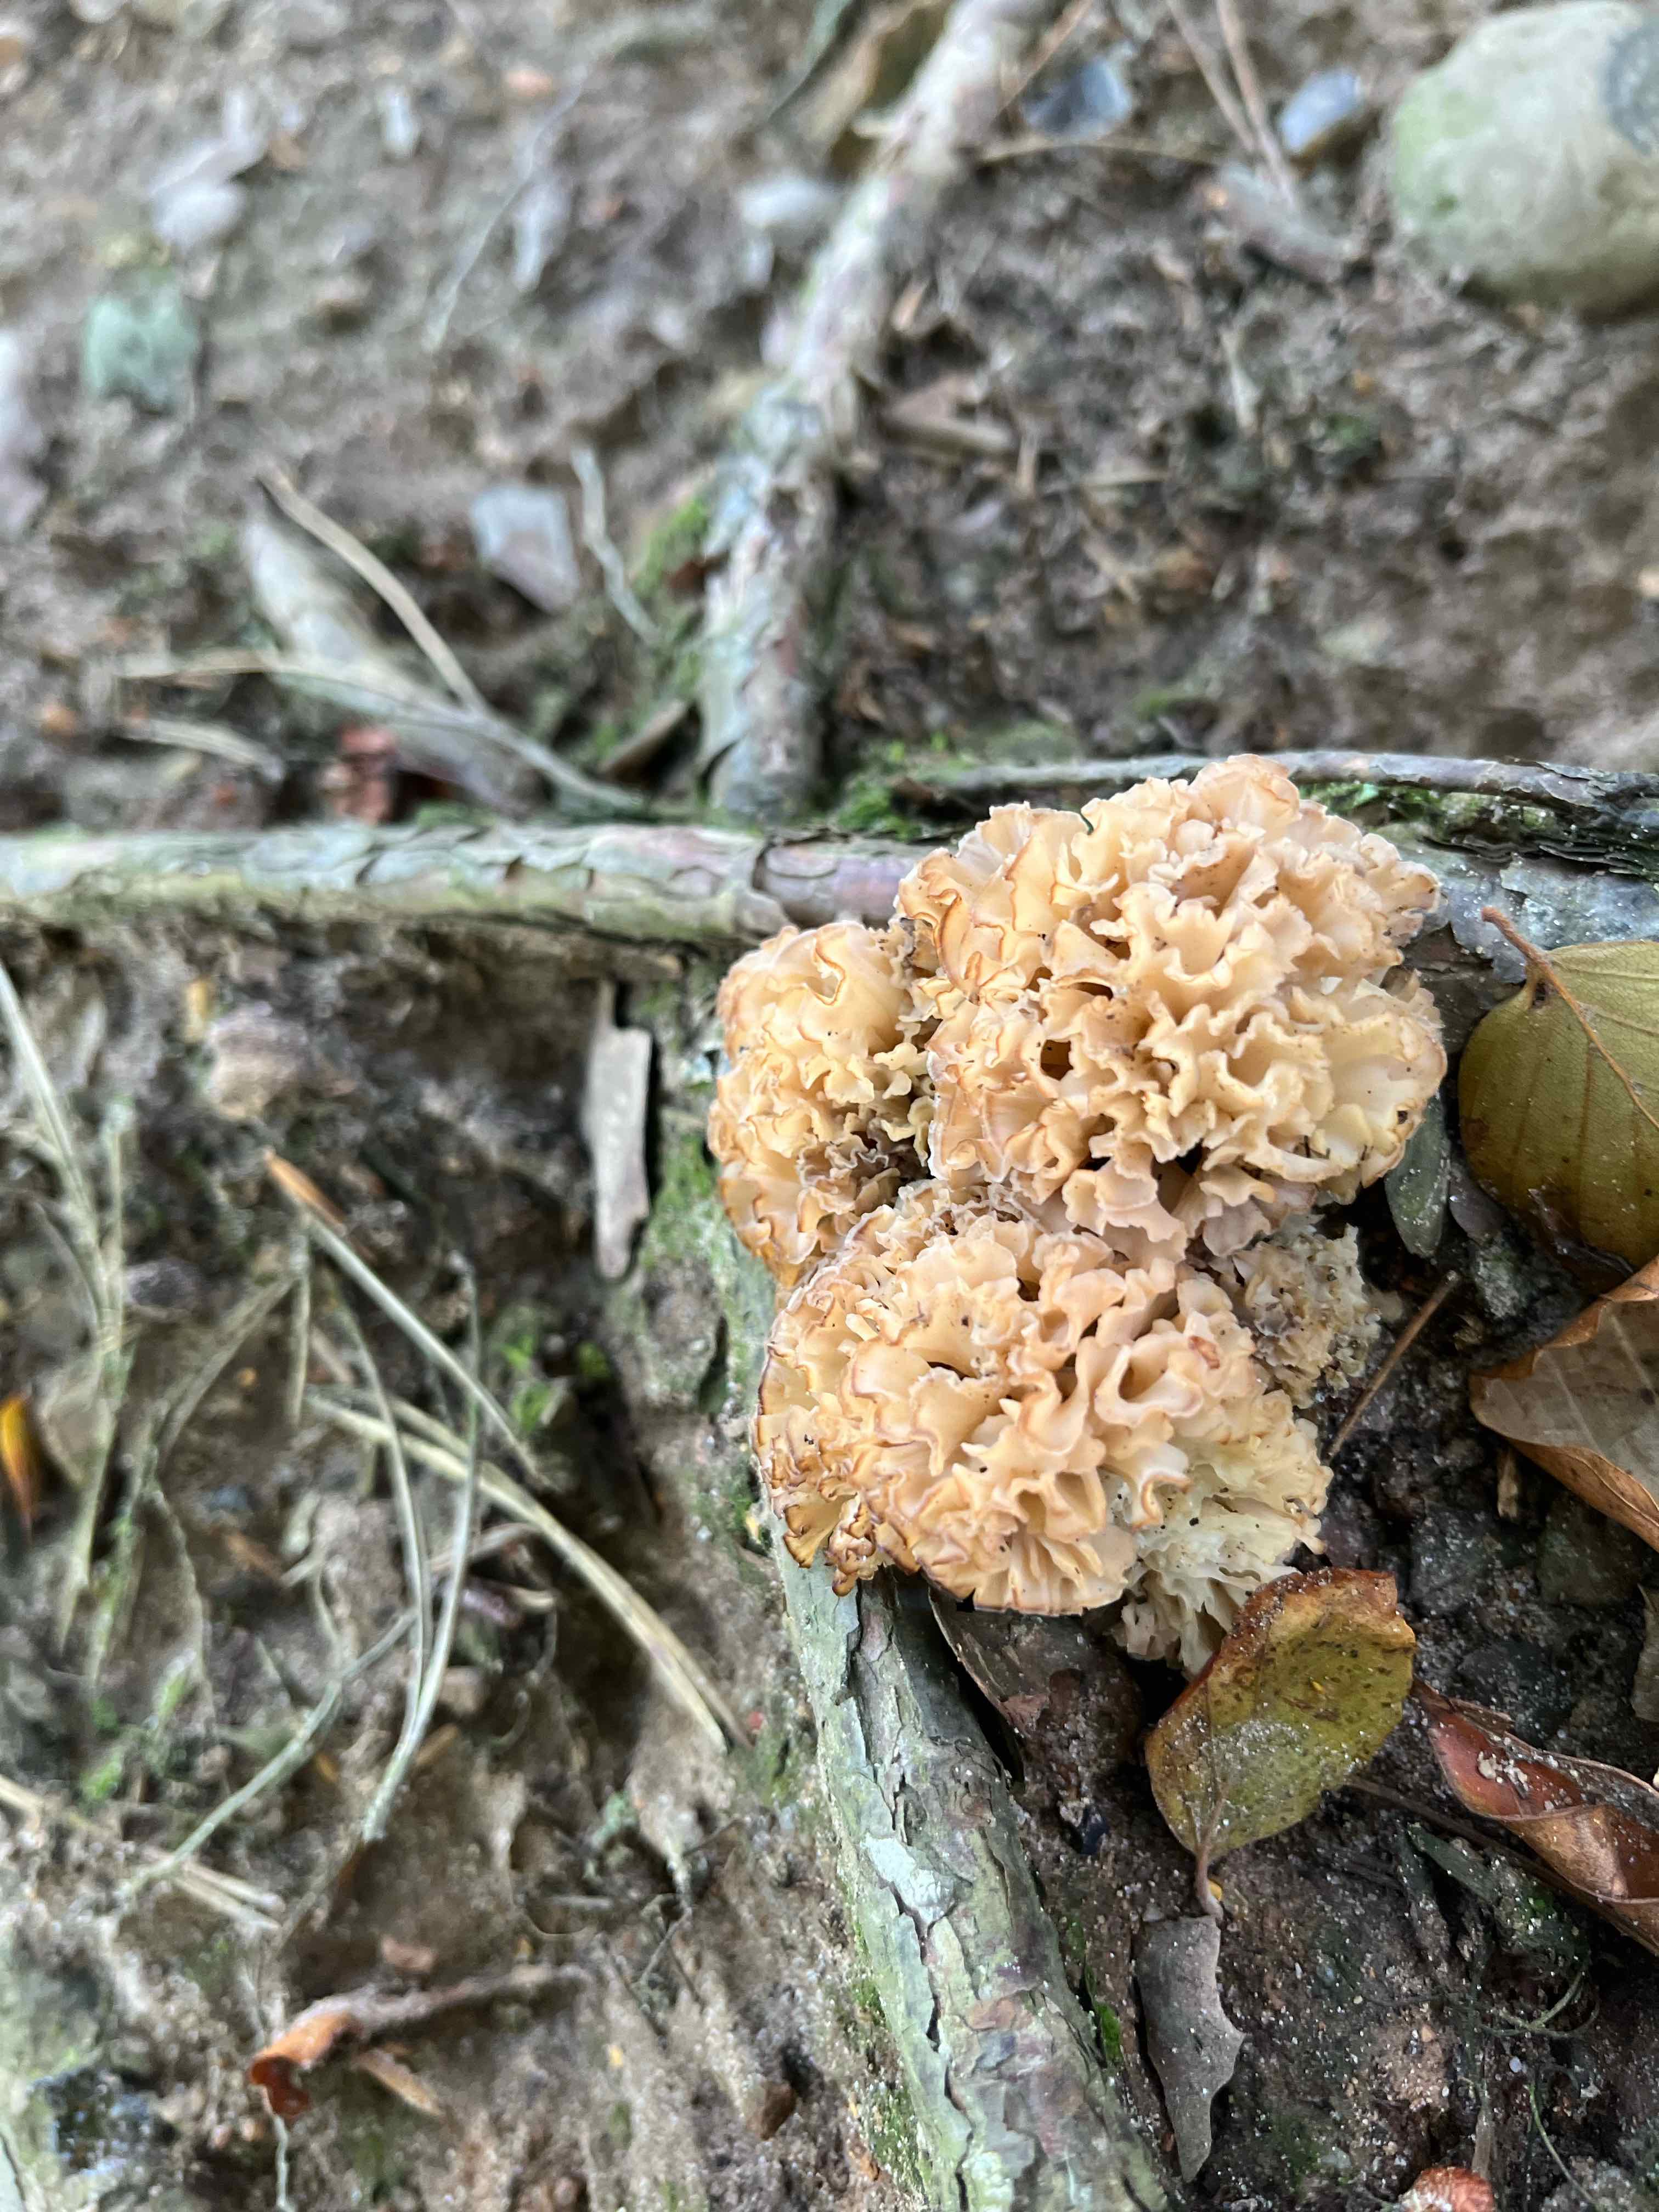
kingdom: Fungi
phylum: Basidiomycota
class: Agaricomycetes
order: Polyporales
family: Sparassidaceae
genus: Sparassis
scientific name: Sparassis crispa
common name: kruset blomkålssvamp
